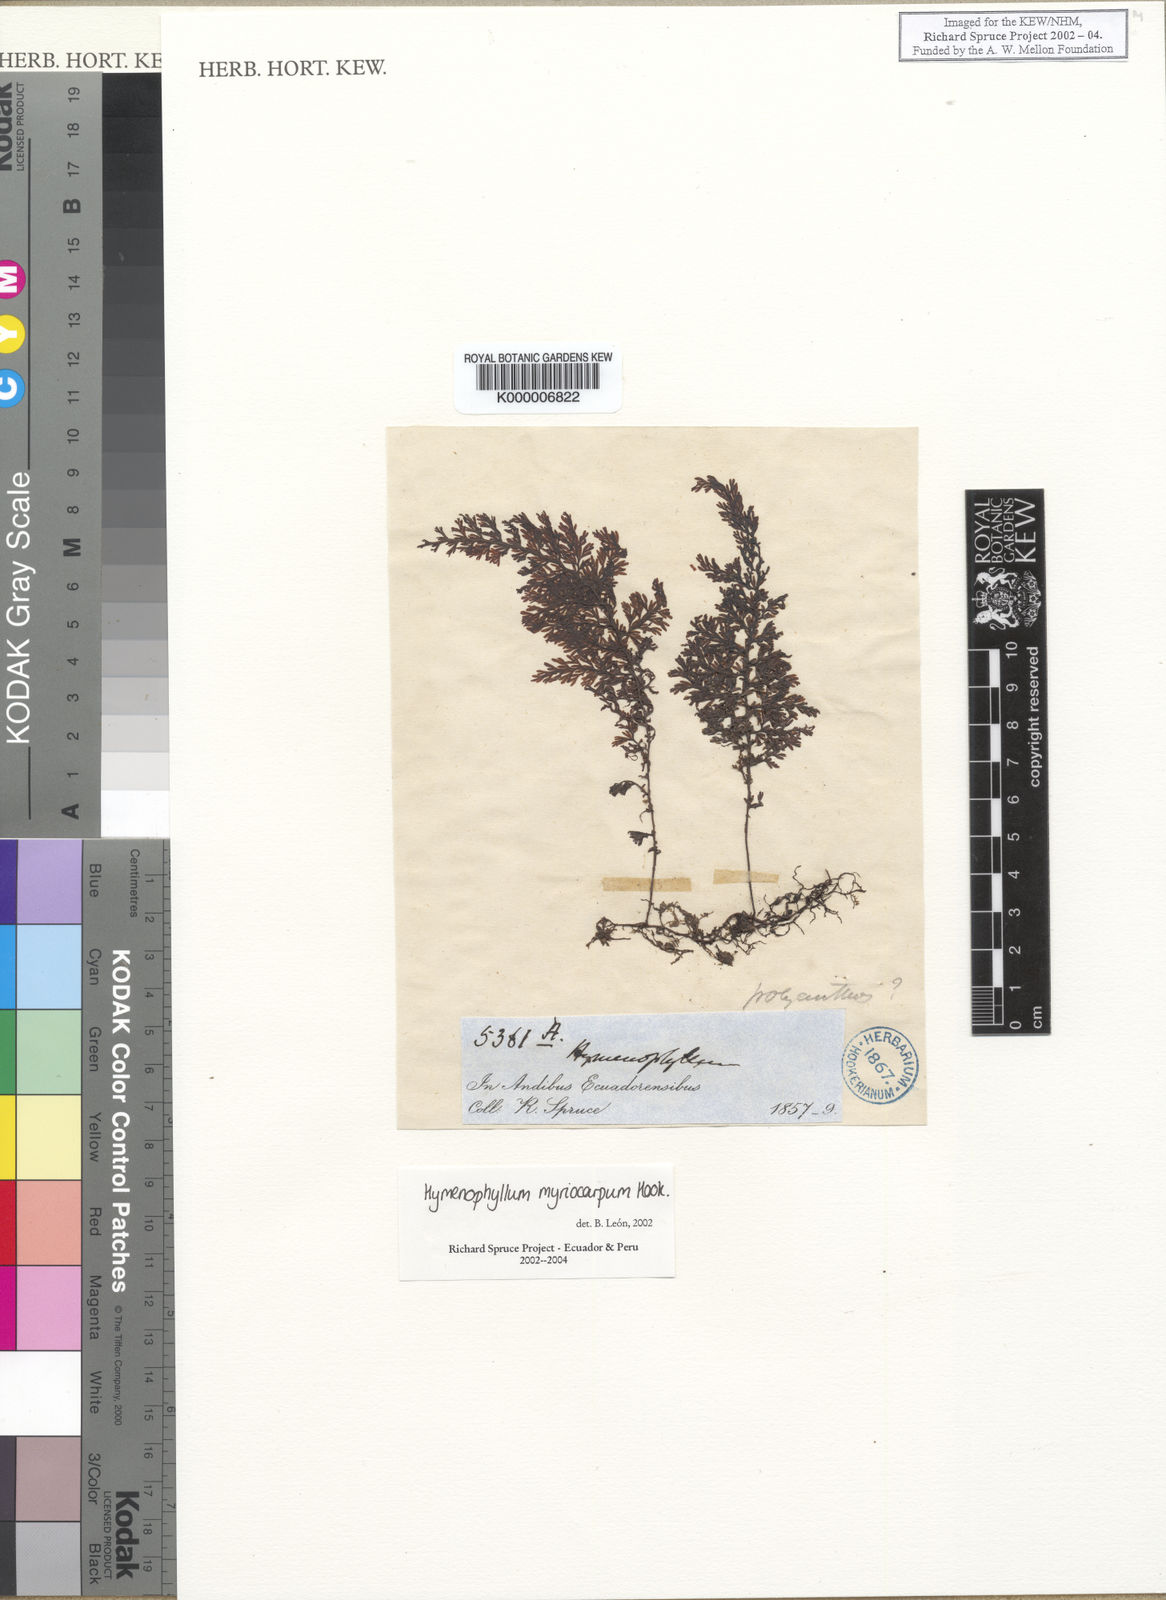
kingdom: Plantae
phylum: Tracheophyta
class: Polypodiopsida
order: Hymenophyllales
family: Hymenophyllaceae
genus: Hymenophyllum
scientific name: Hymenophyllum myriocarpum
